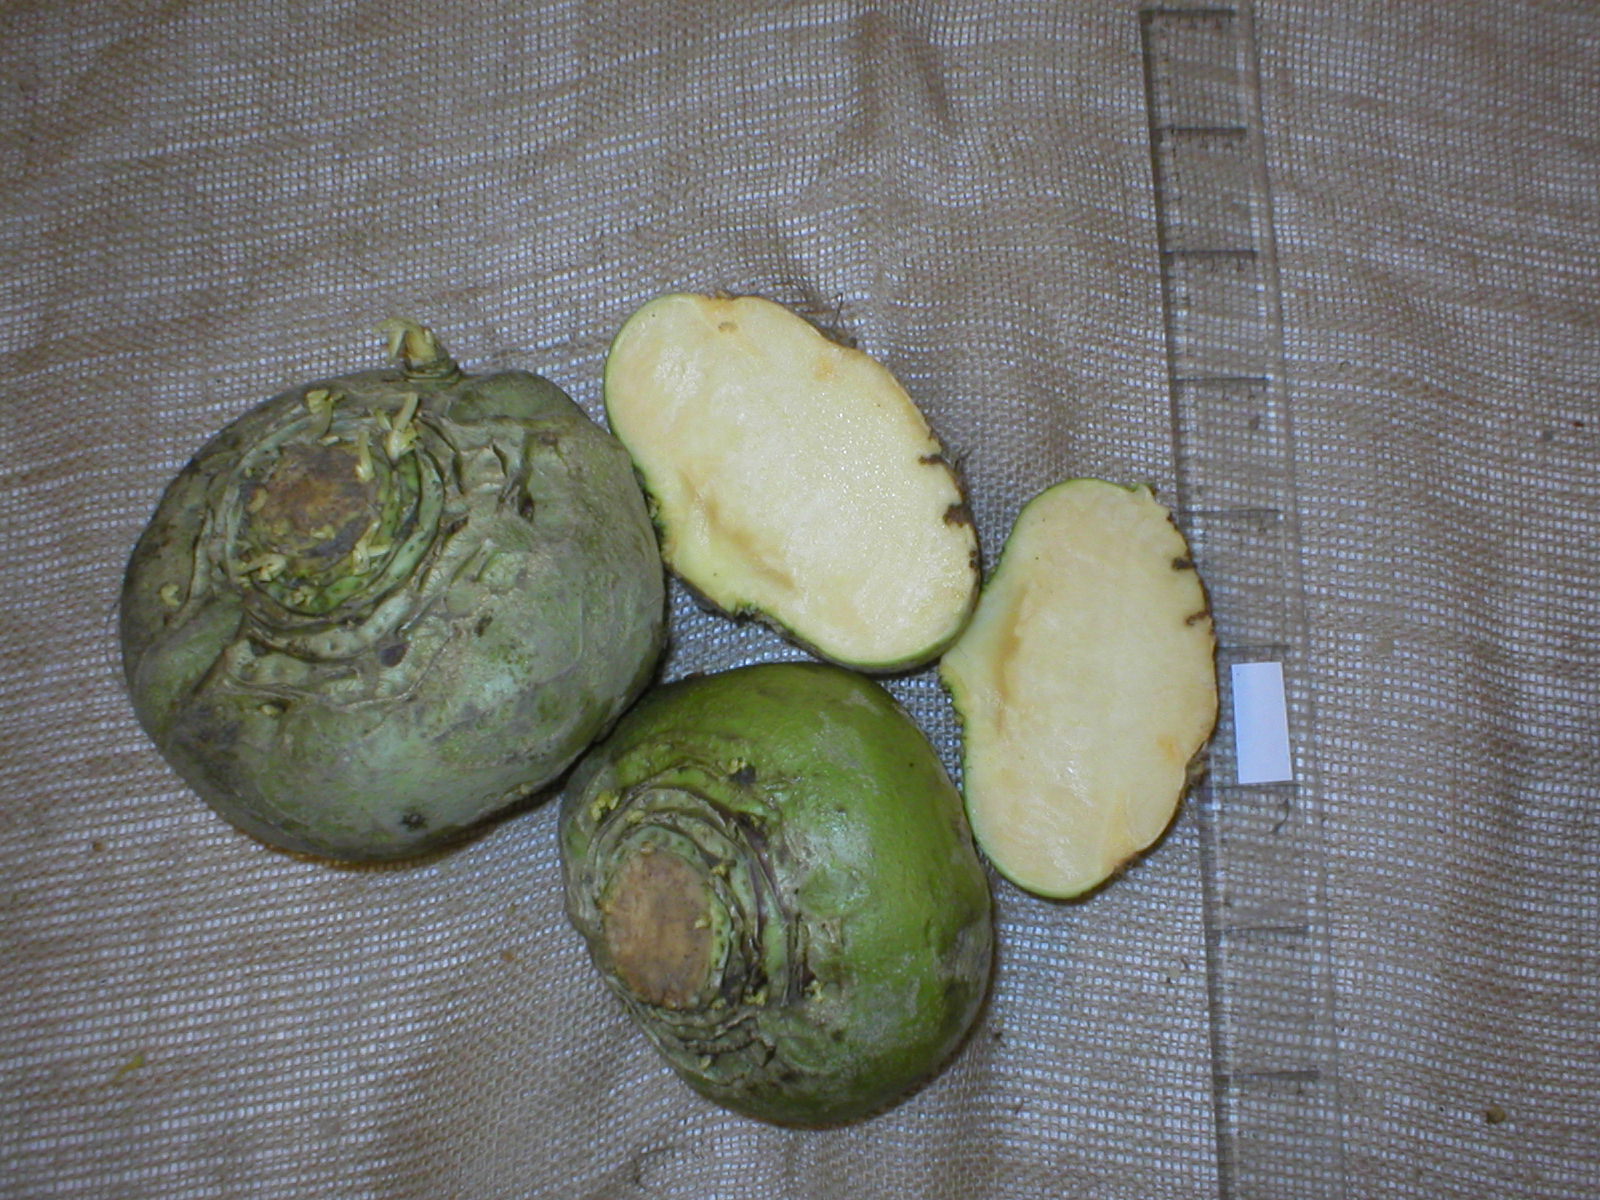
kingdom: Plantae
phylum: Tracheophyta
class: Magnoliopsida
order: Brassicales
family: Brassicaceae
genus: Brassica
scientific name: Brassica napus
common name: Rape
